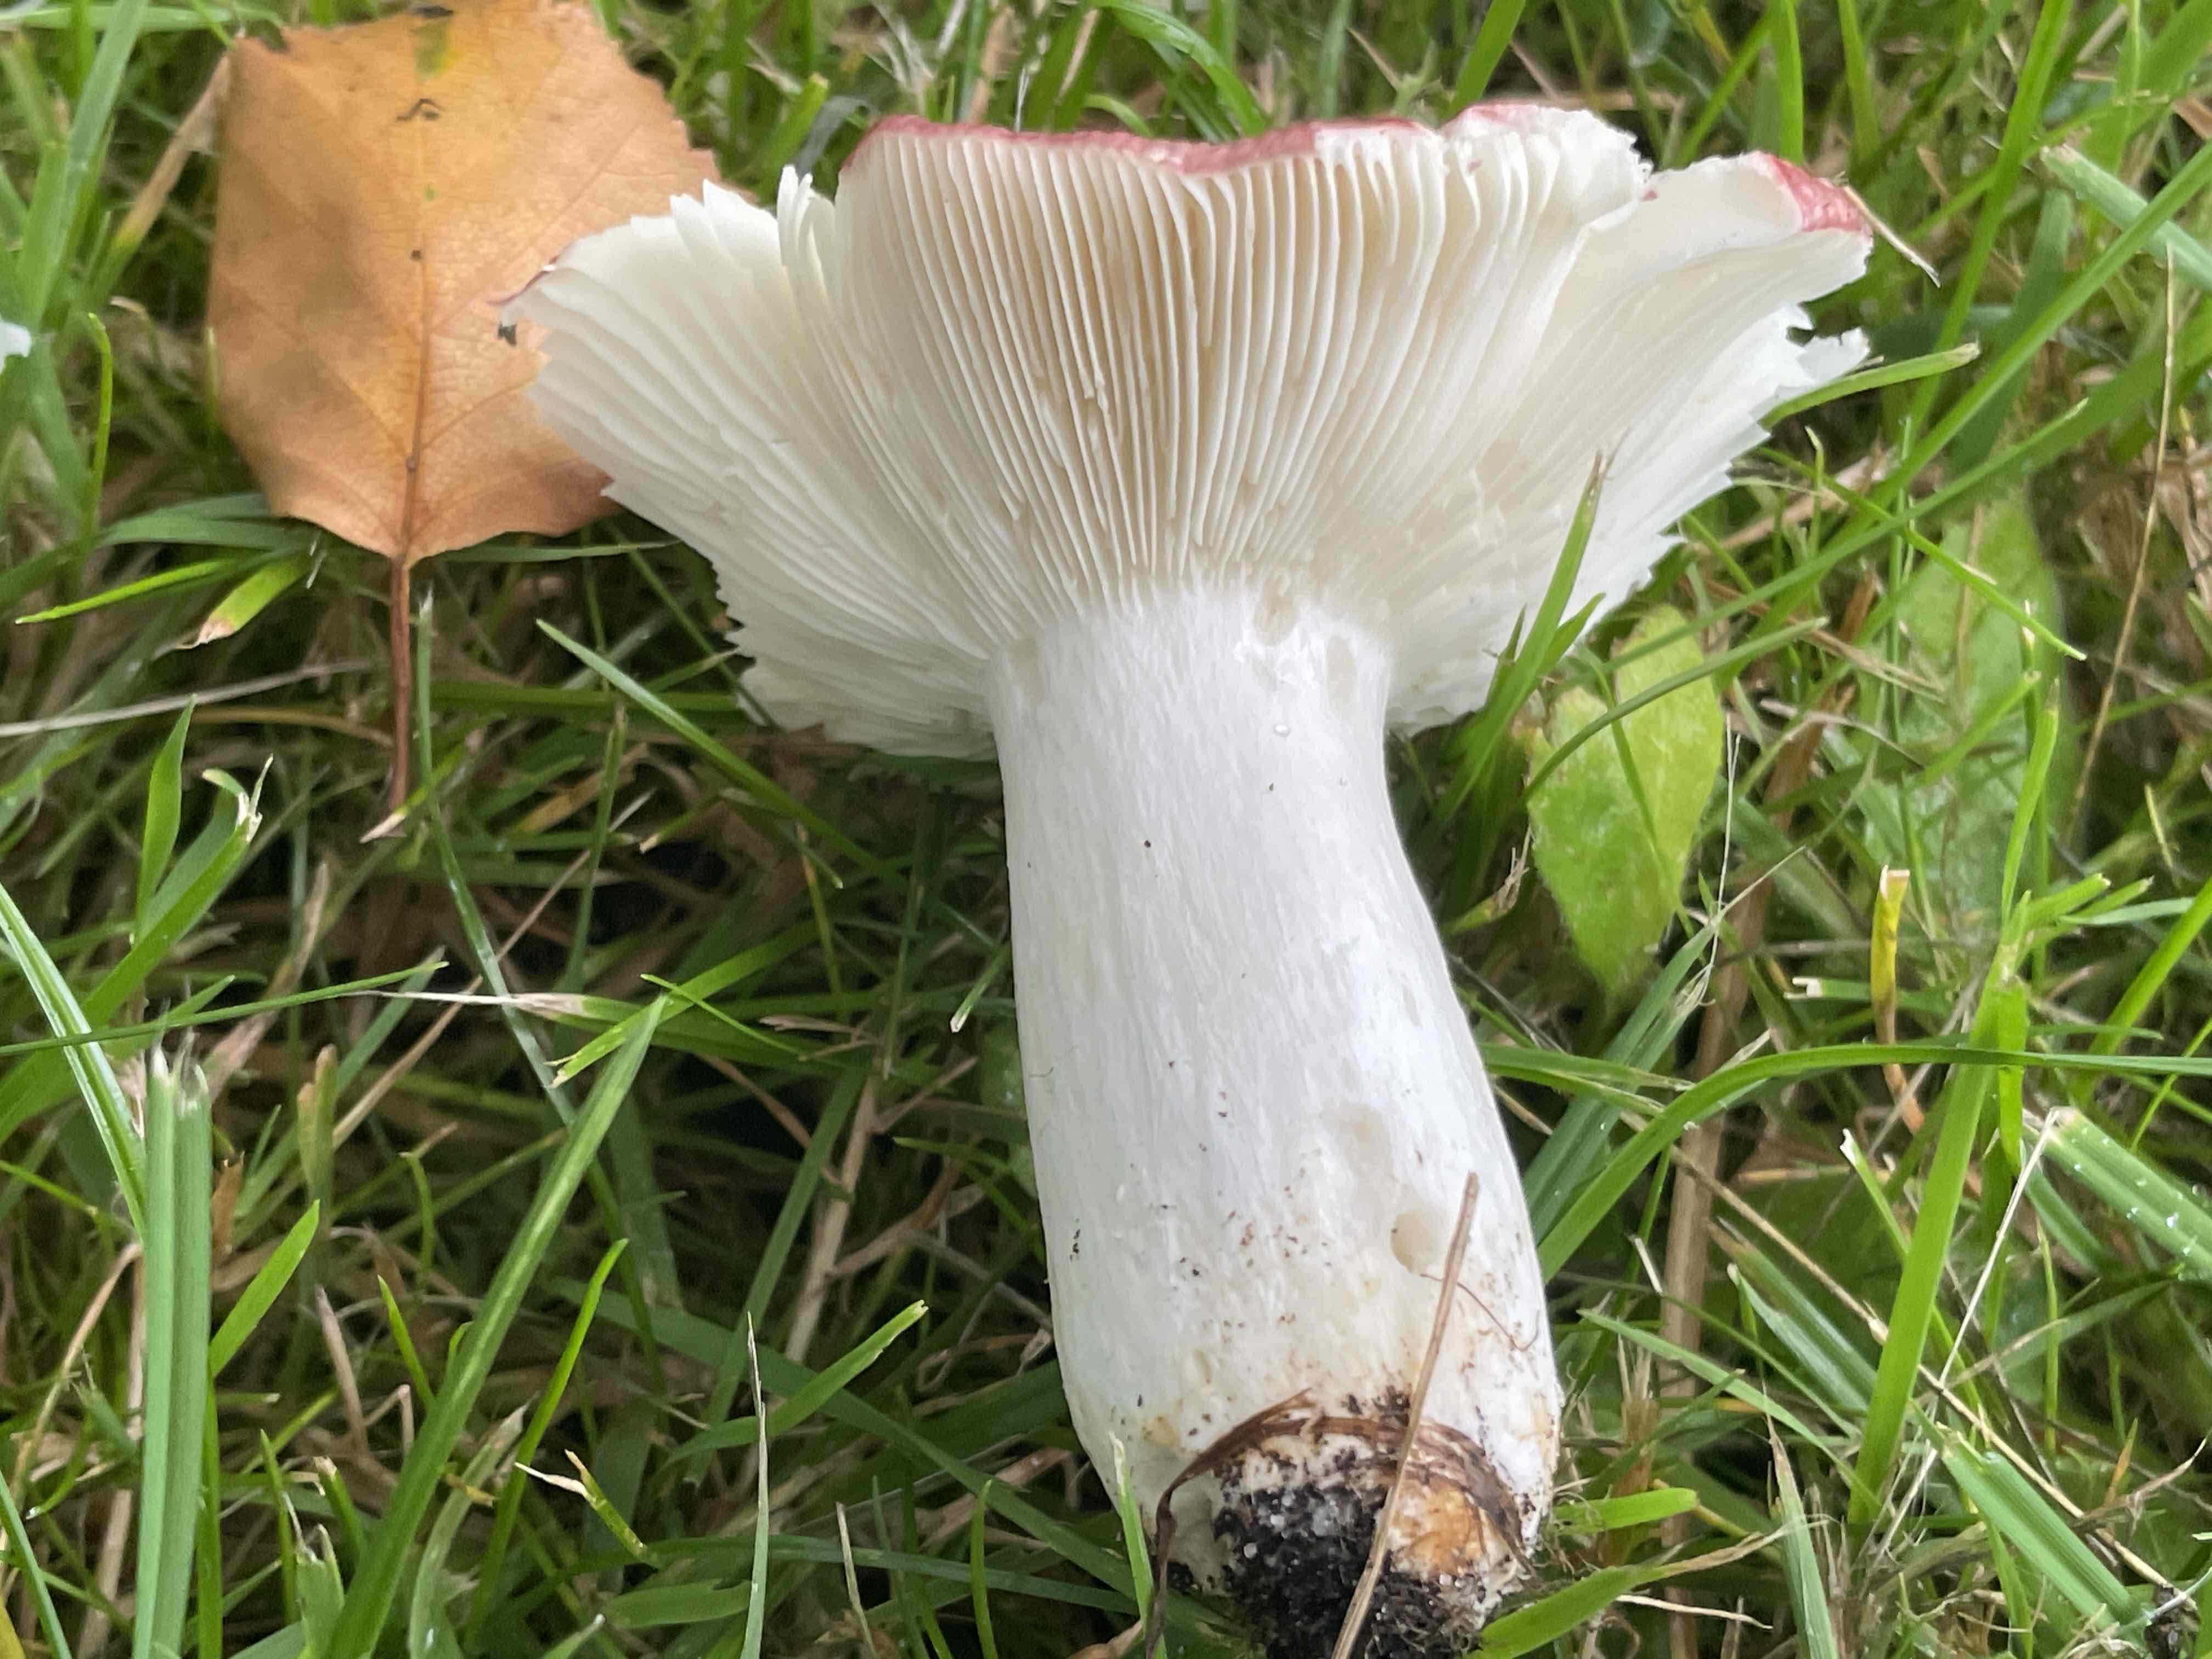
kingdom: Fungi
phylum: Basidiomycota
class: Agaricomycetes
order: Russulales
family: Russulaceae
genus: Russula
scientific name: Russula depallens
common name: falmende skørhat
